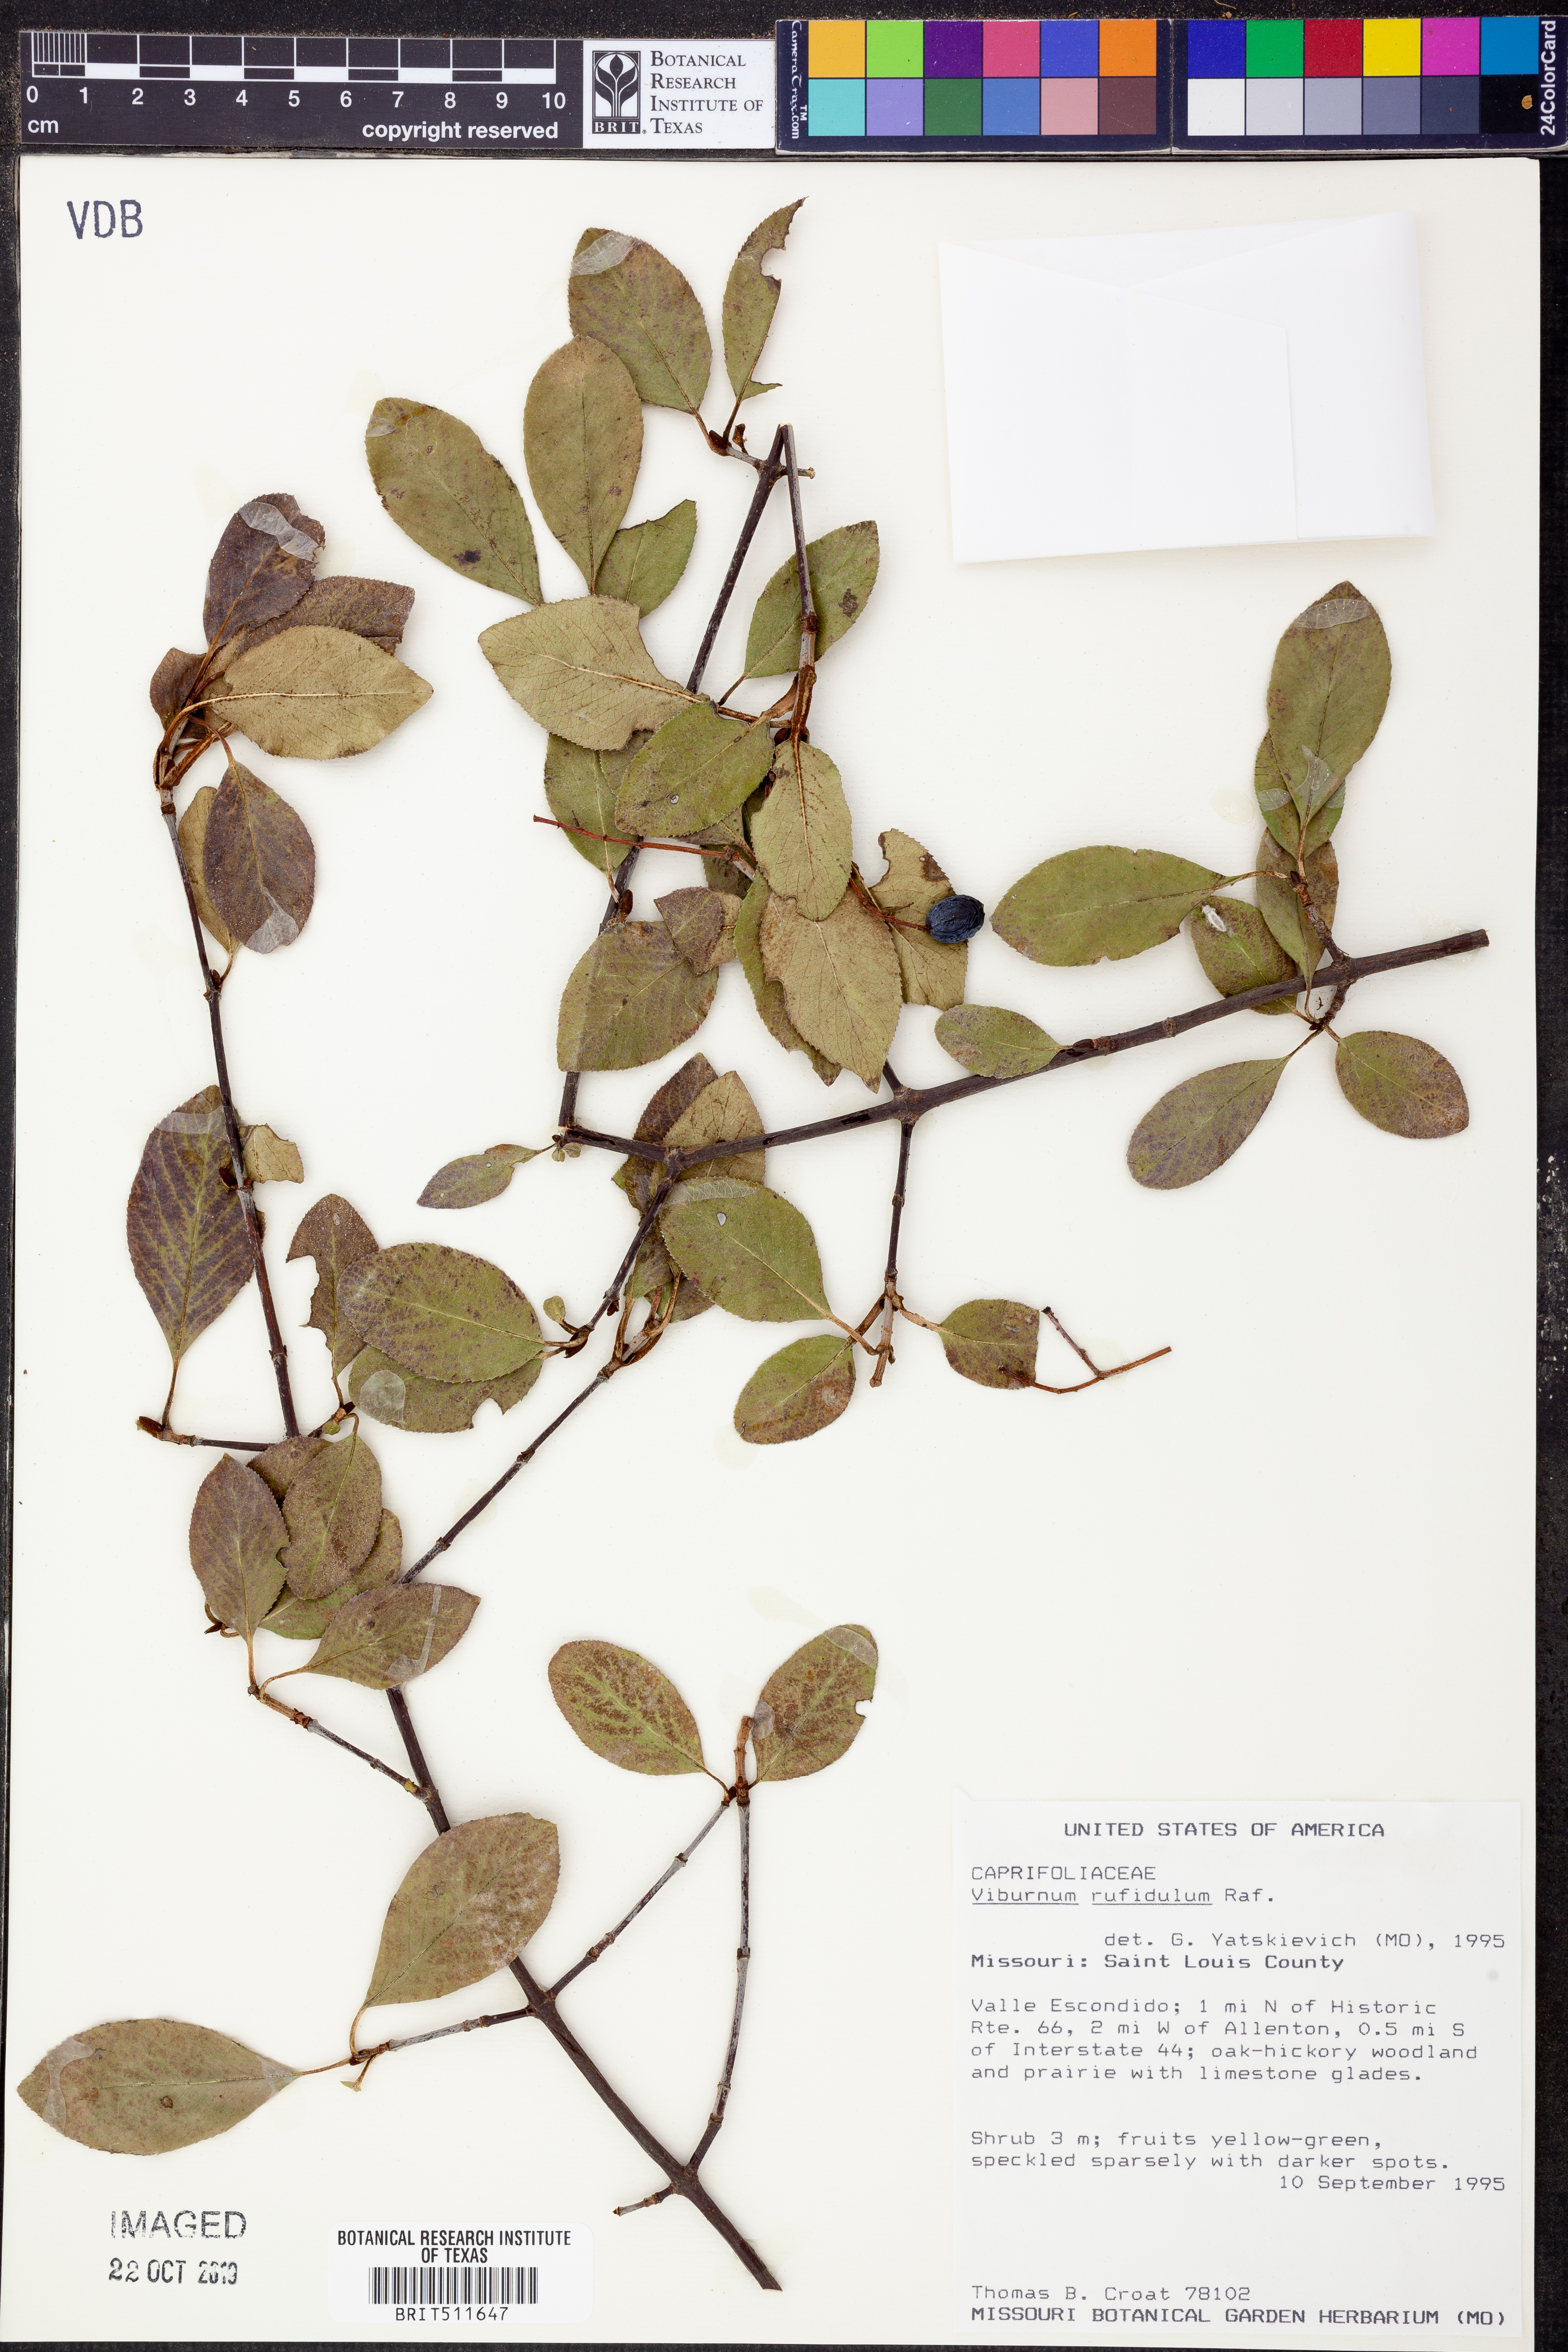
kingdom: Plantae
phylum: Tracheophyta
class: Magnoliopsida
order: Dipsacales
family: Viburnaceae
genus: Viburnum
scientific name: Viburnum rufidulum
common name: Blue haw
